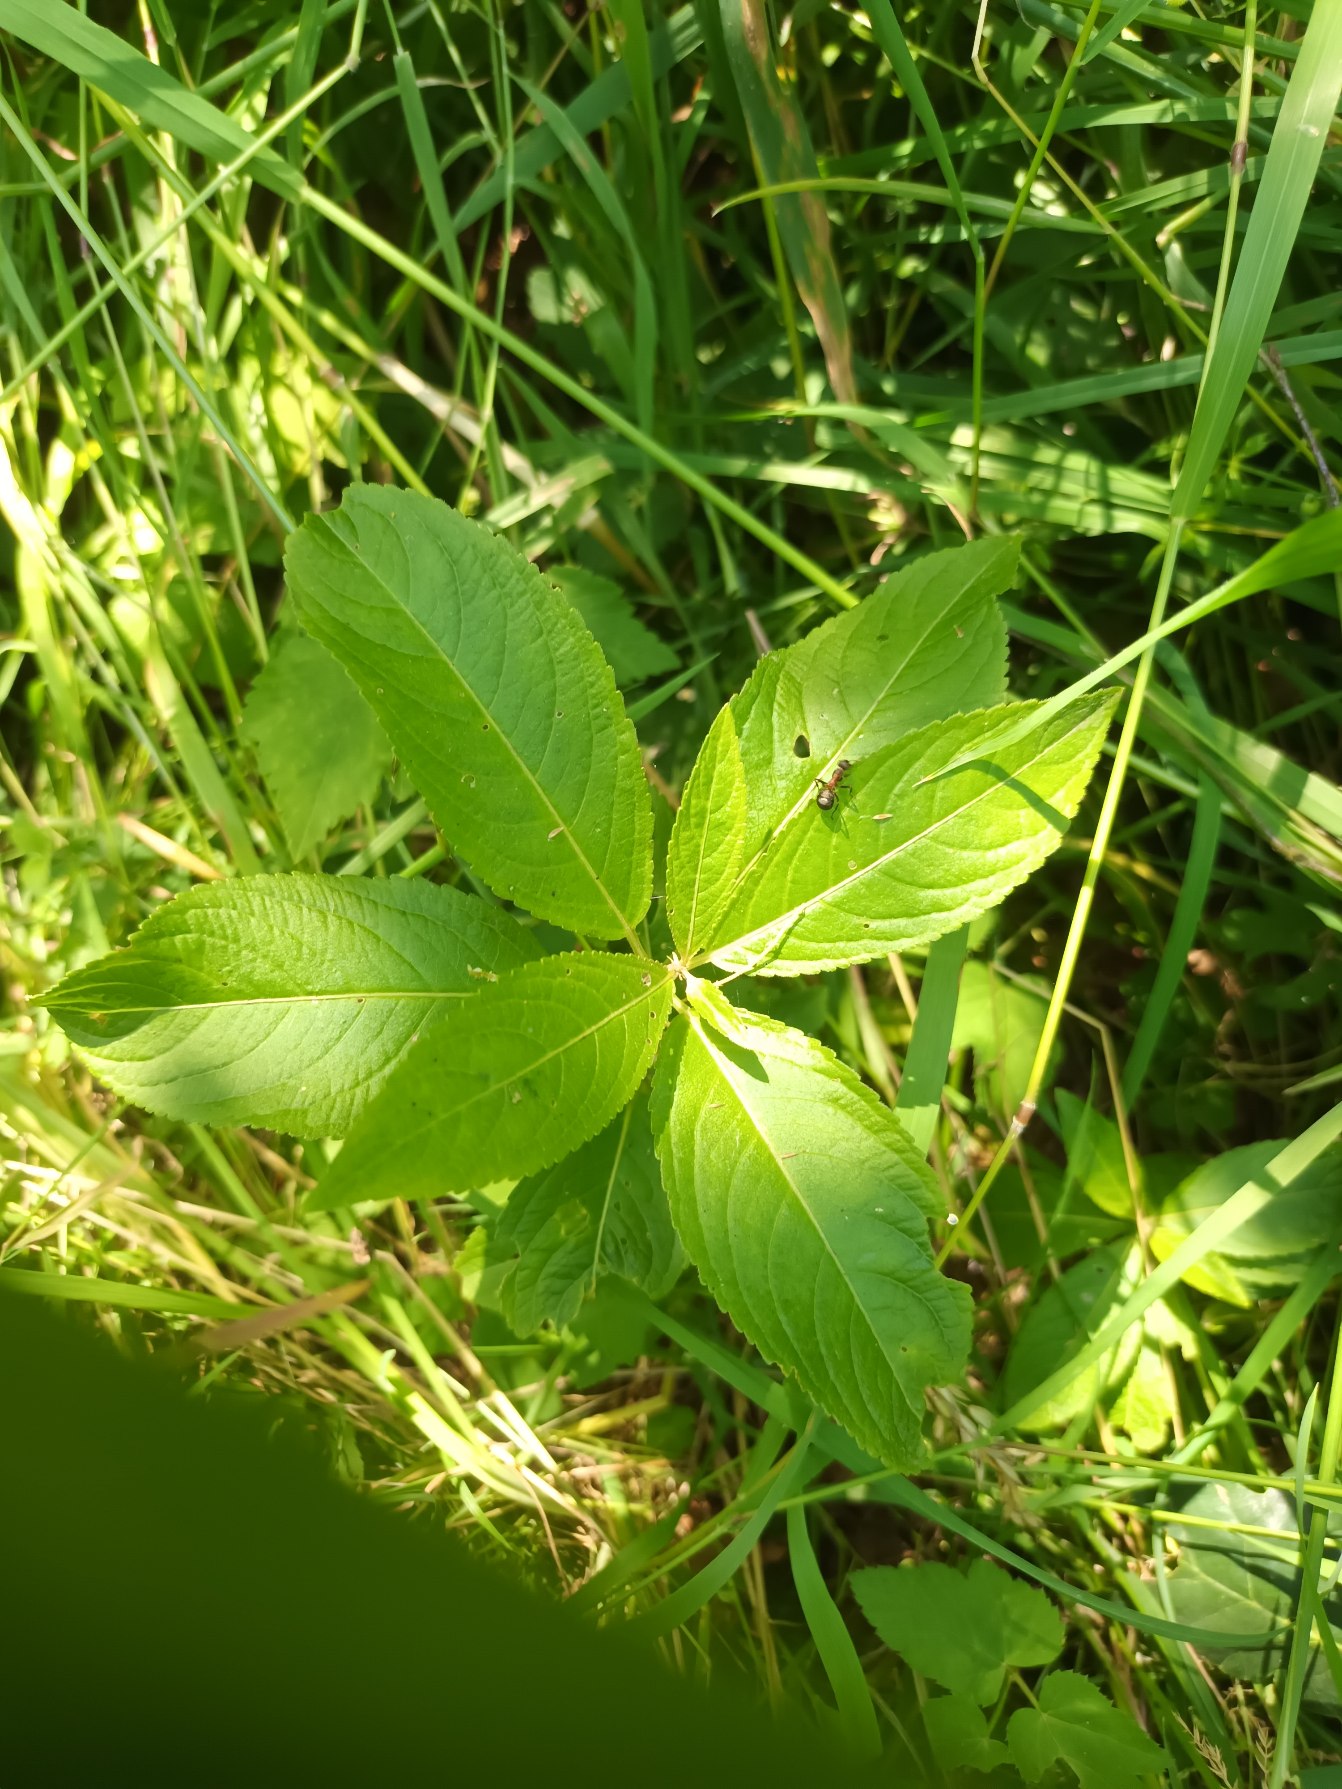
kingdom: Plantae
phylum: Tracheophyta
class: Magnoliopsida
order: Malpighiales
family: Euphorbiaceae
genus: Mercurialis
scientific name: Mercurialis perennis
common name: Almindelig bingelurt
